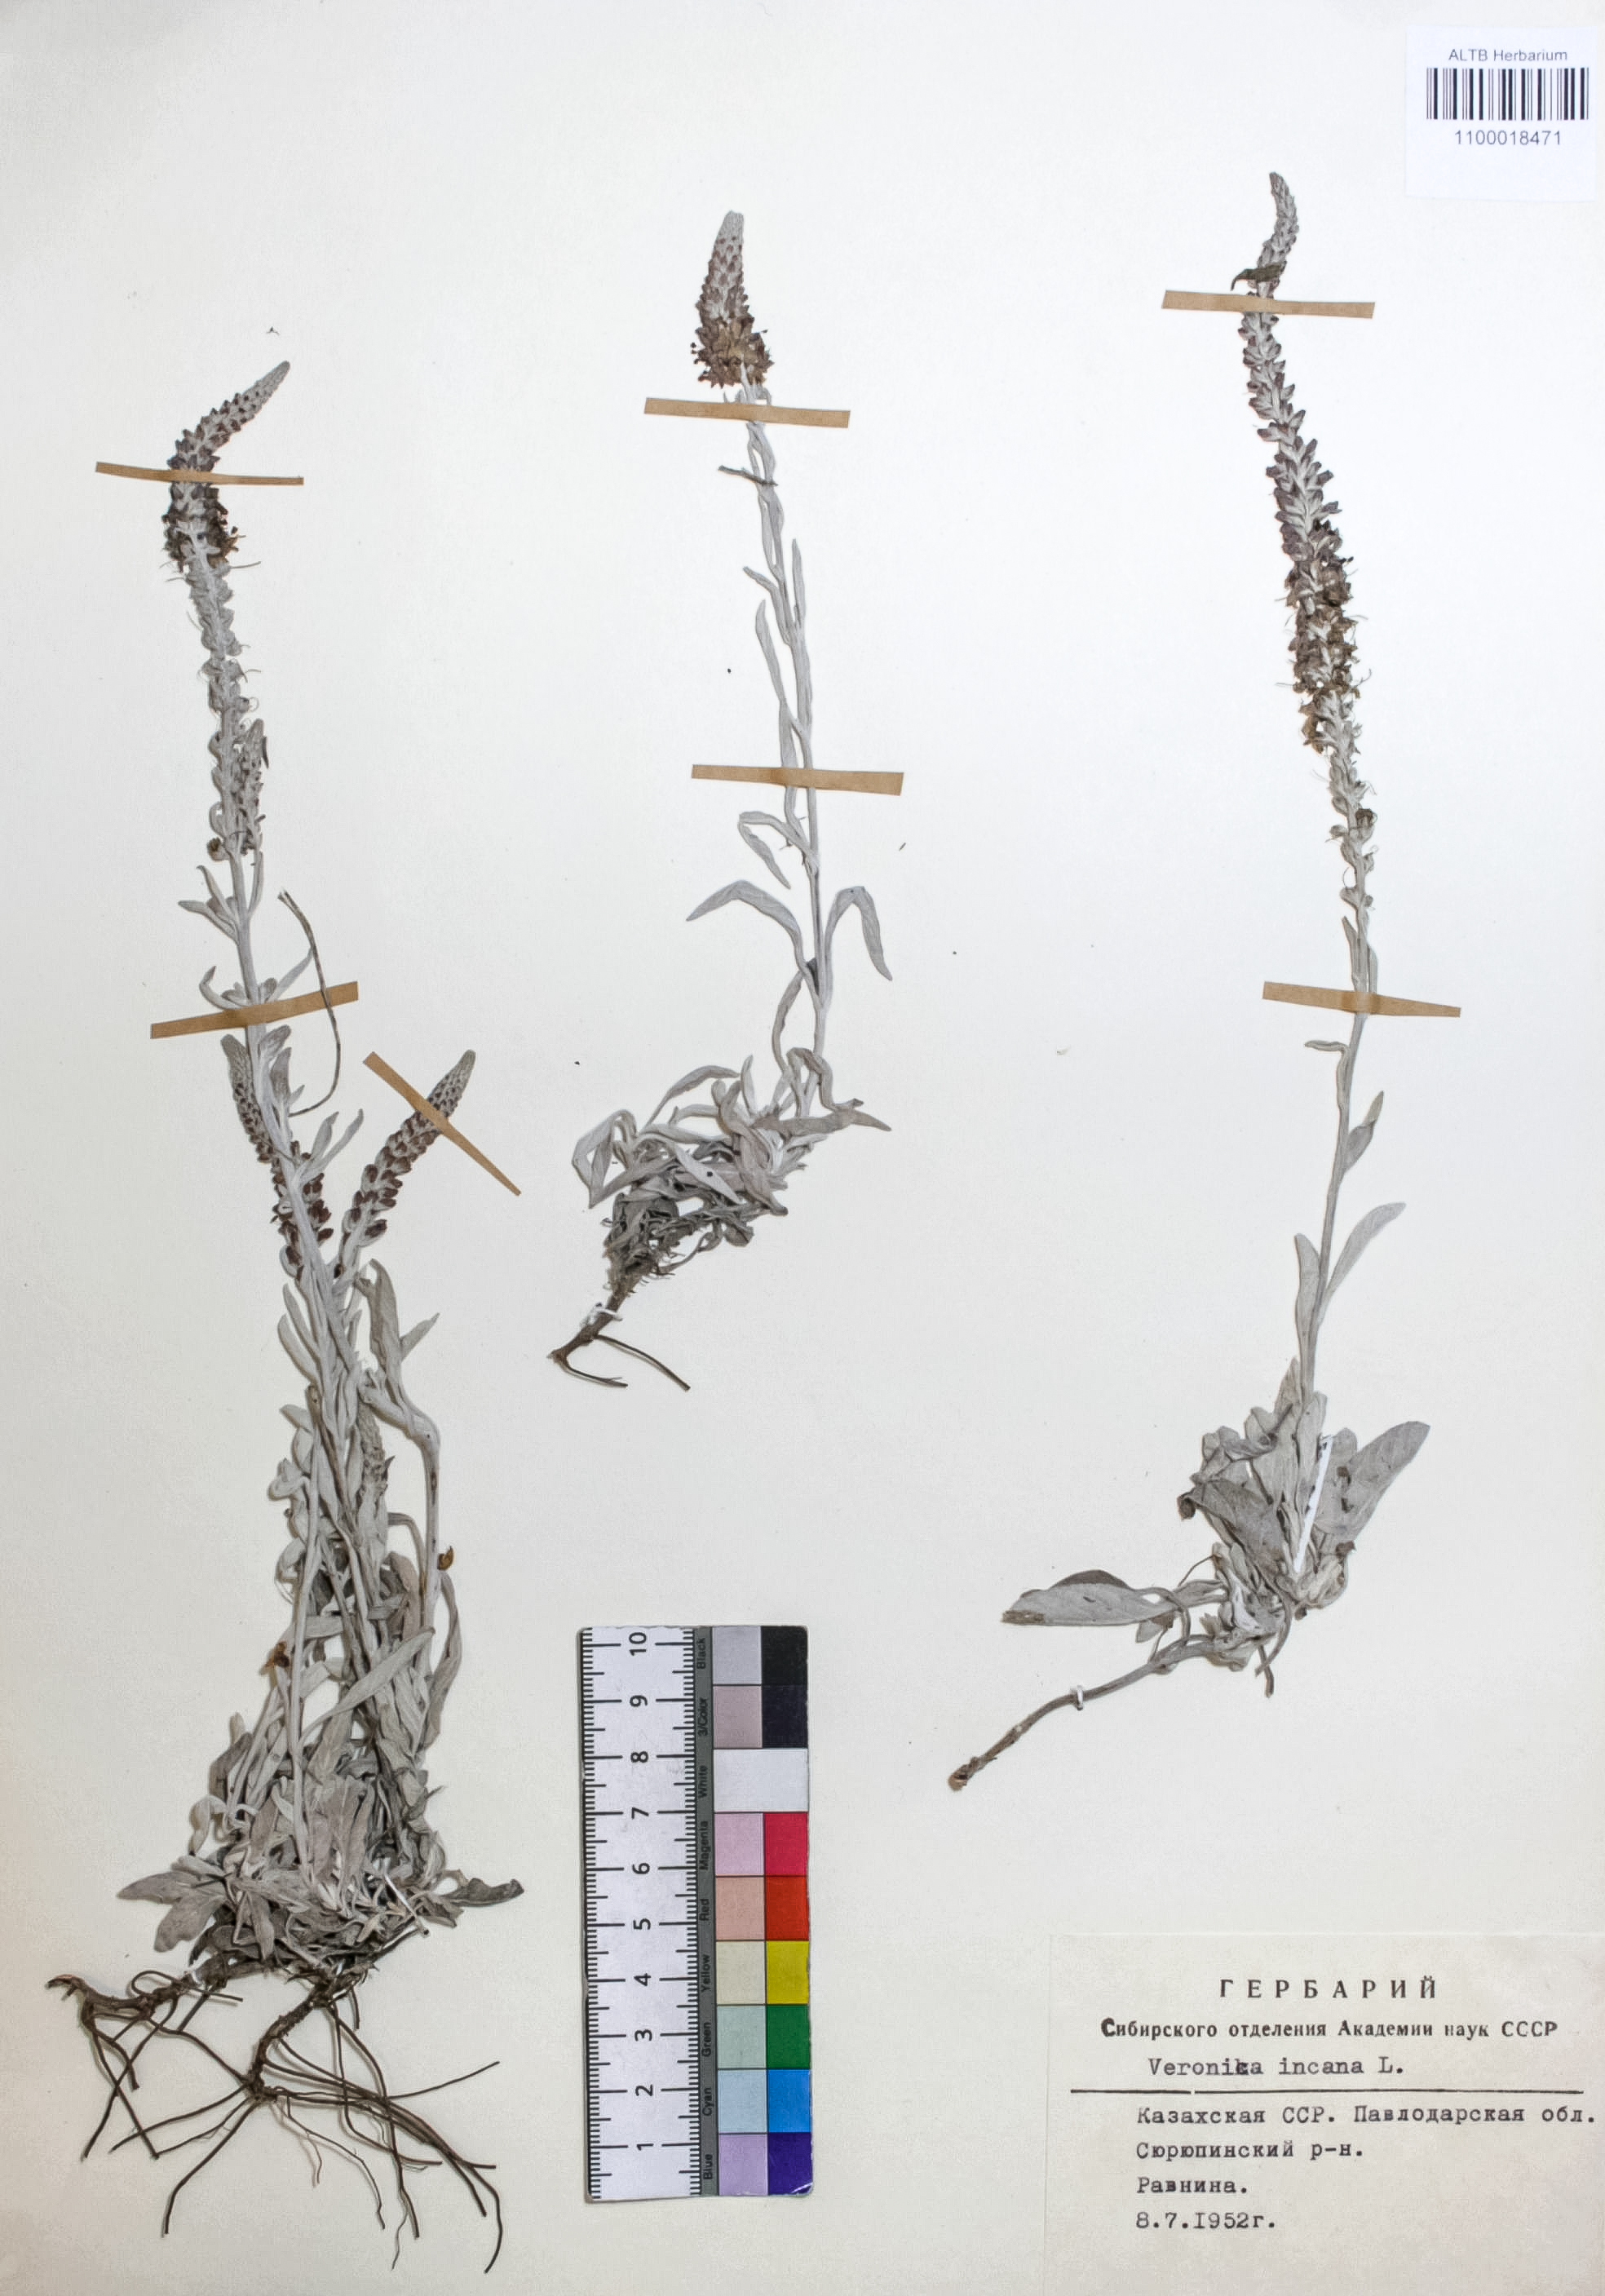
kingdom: Plantae
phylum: Tracheophyta
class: Magnoliopsida
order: Lamiales
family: Plantaginaceae
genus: Veronica
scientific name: Veronica incana
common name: Silver speedwell
